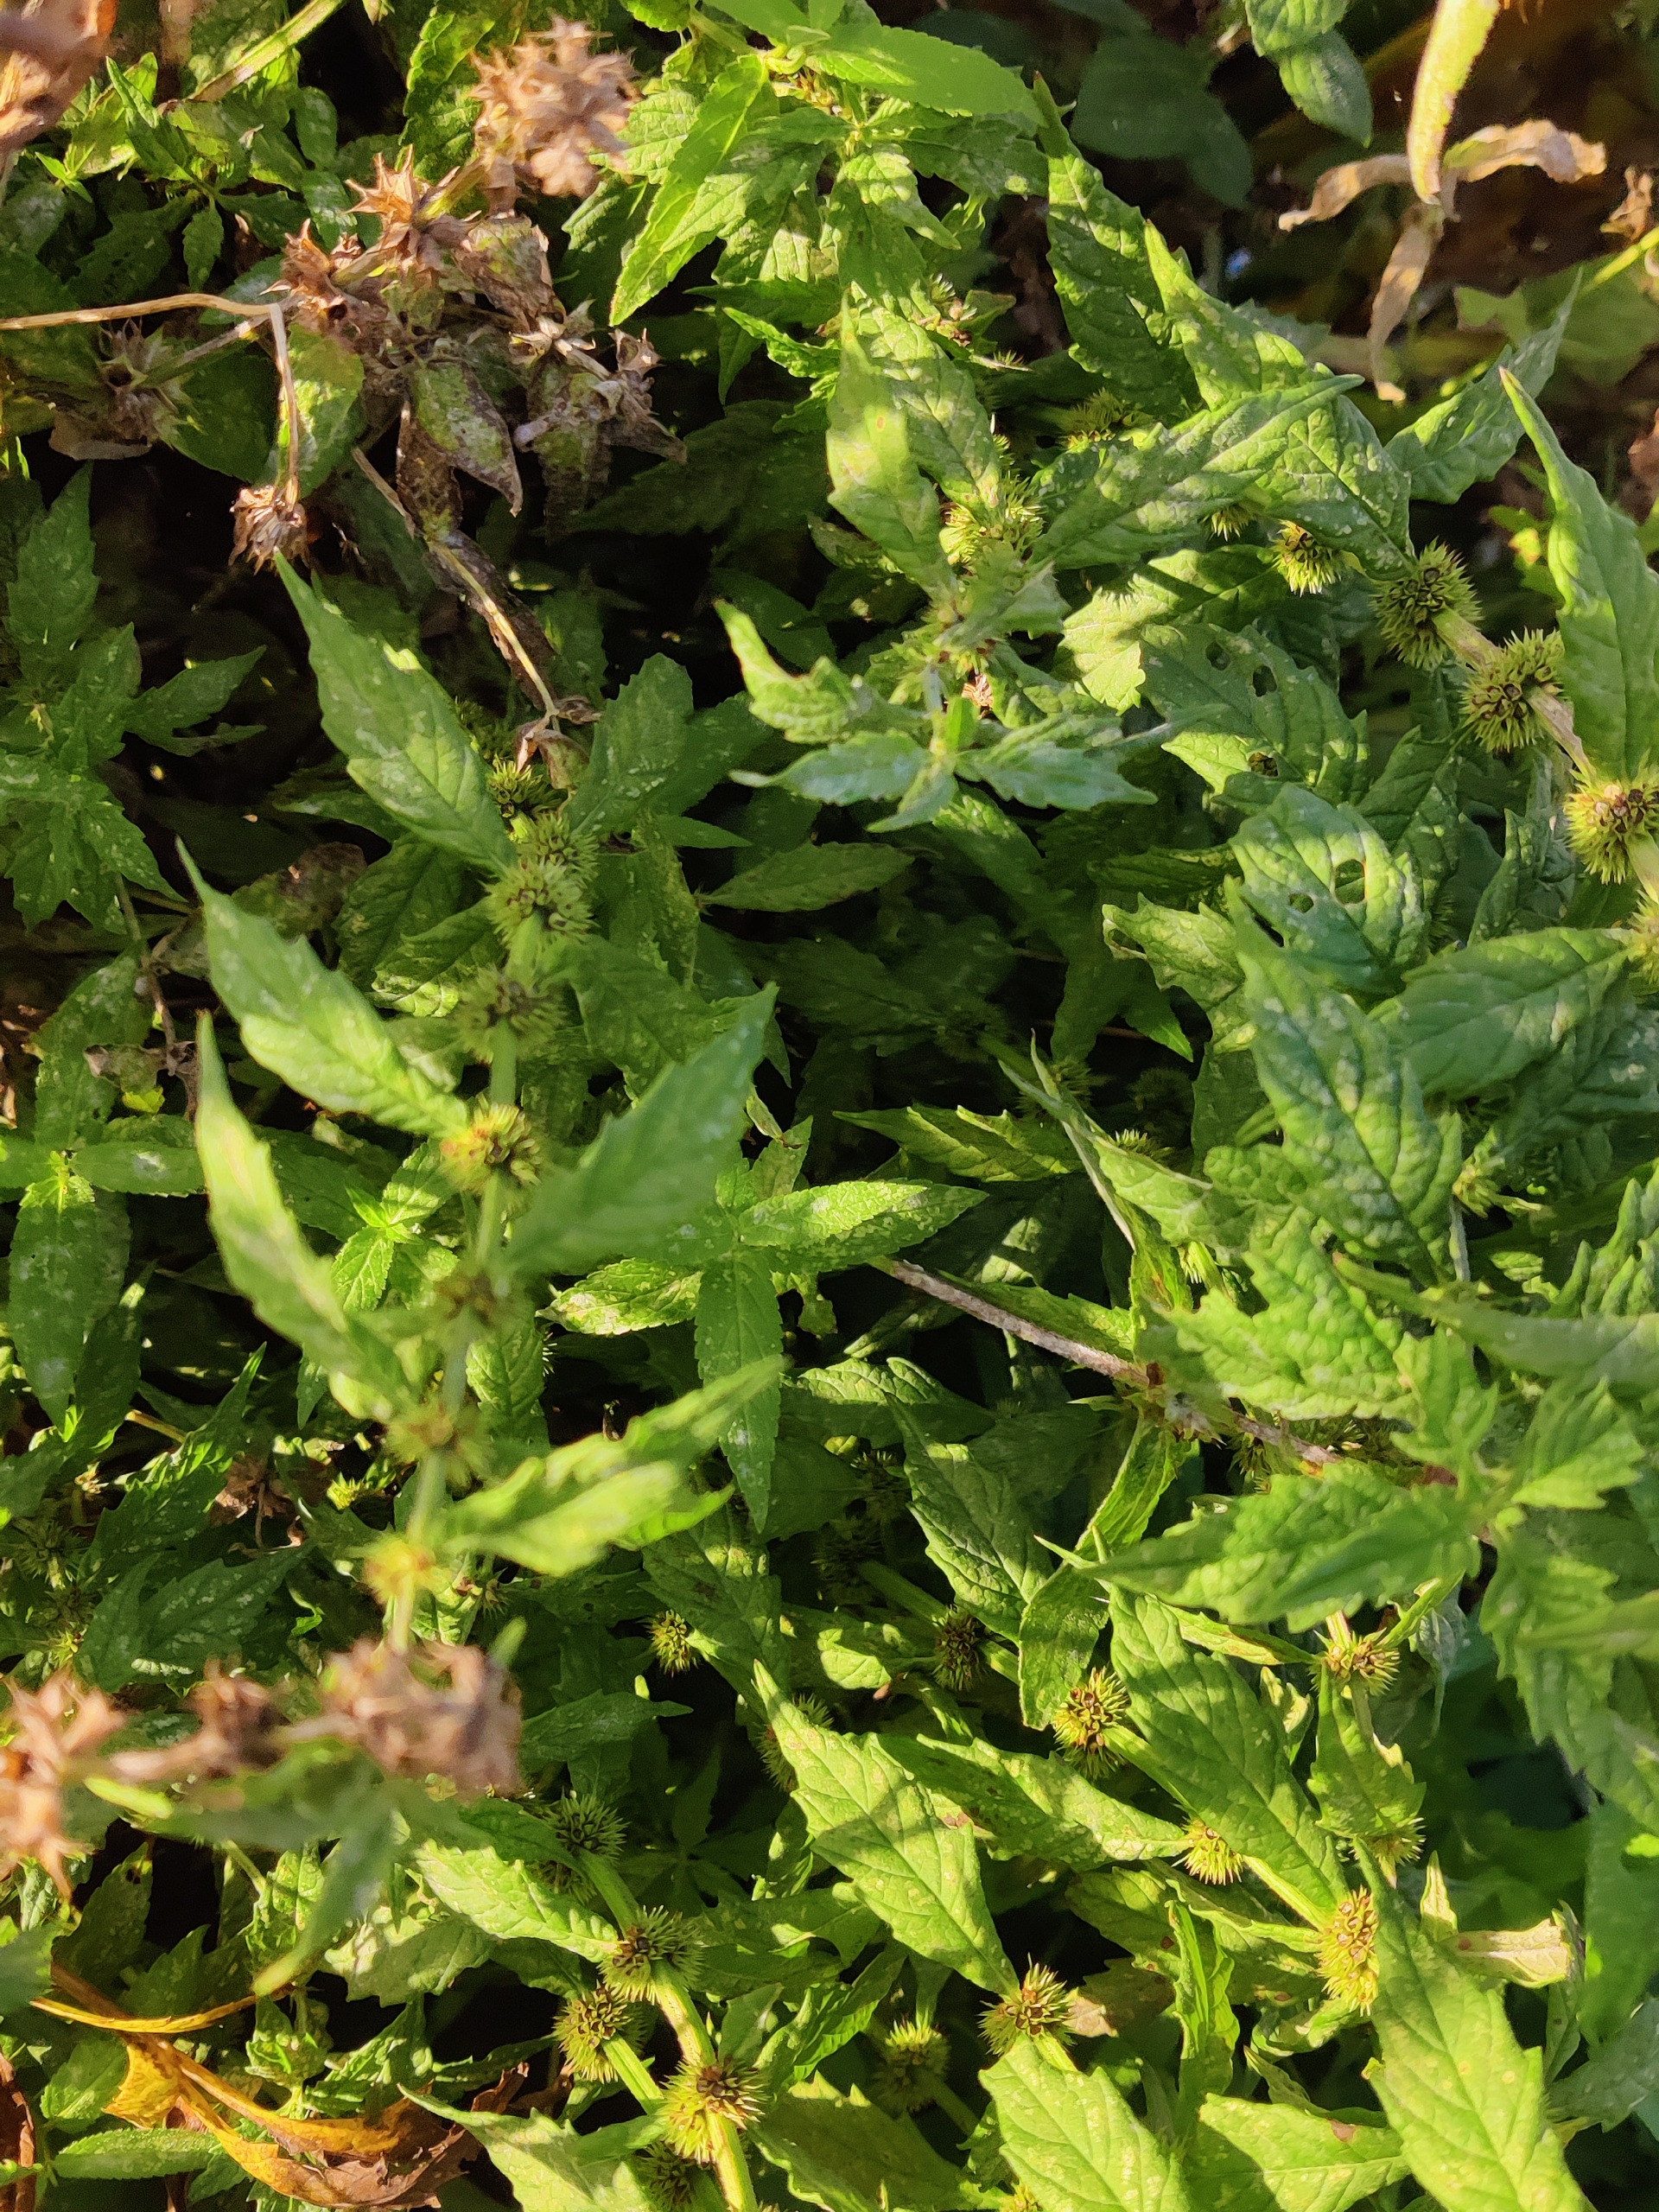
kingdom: Plantae
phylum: Tracheophyta
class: Magnoliopsida
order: Lamiales
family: Lamiaceae
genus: Lycopus
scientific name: Lycopus europaeus
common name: Sværtevæld
